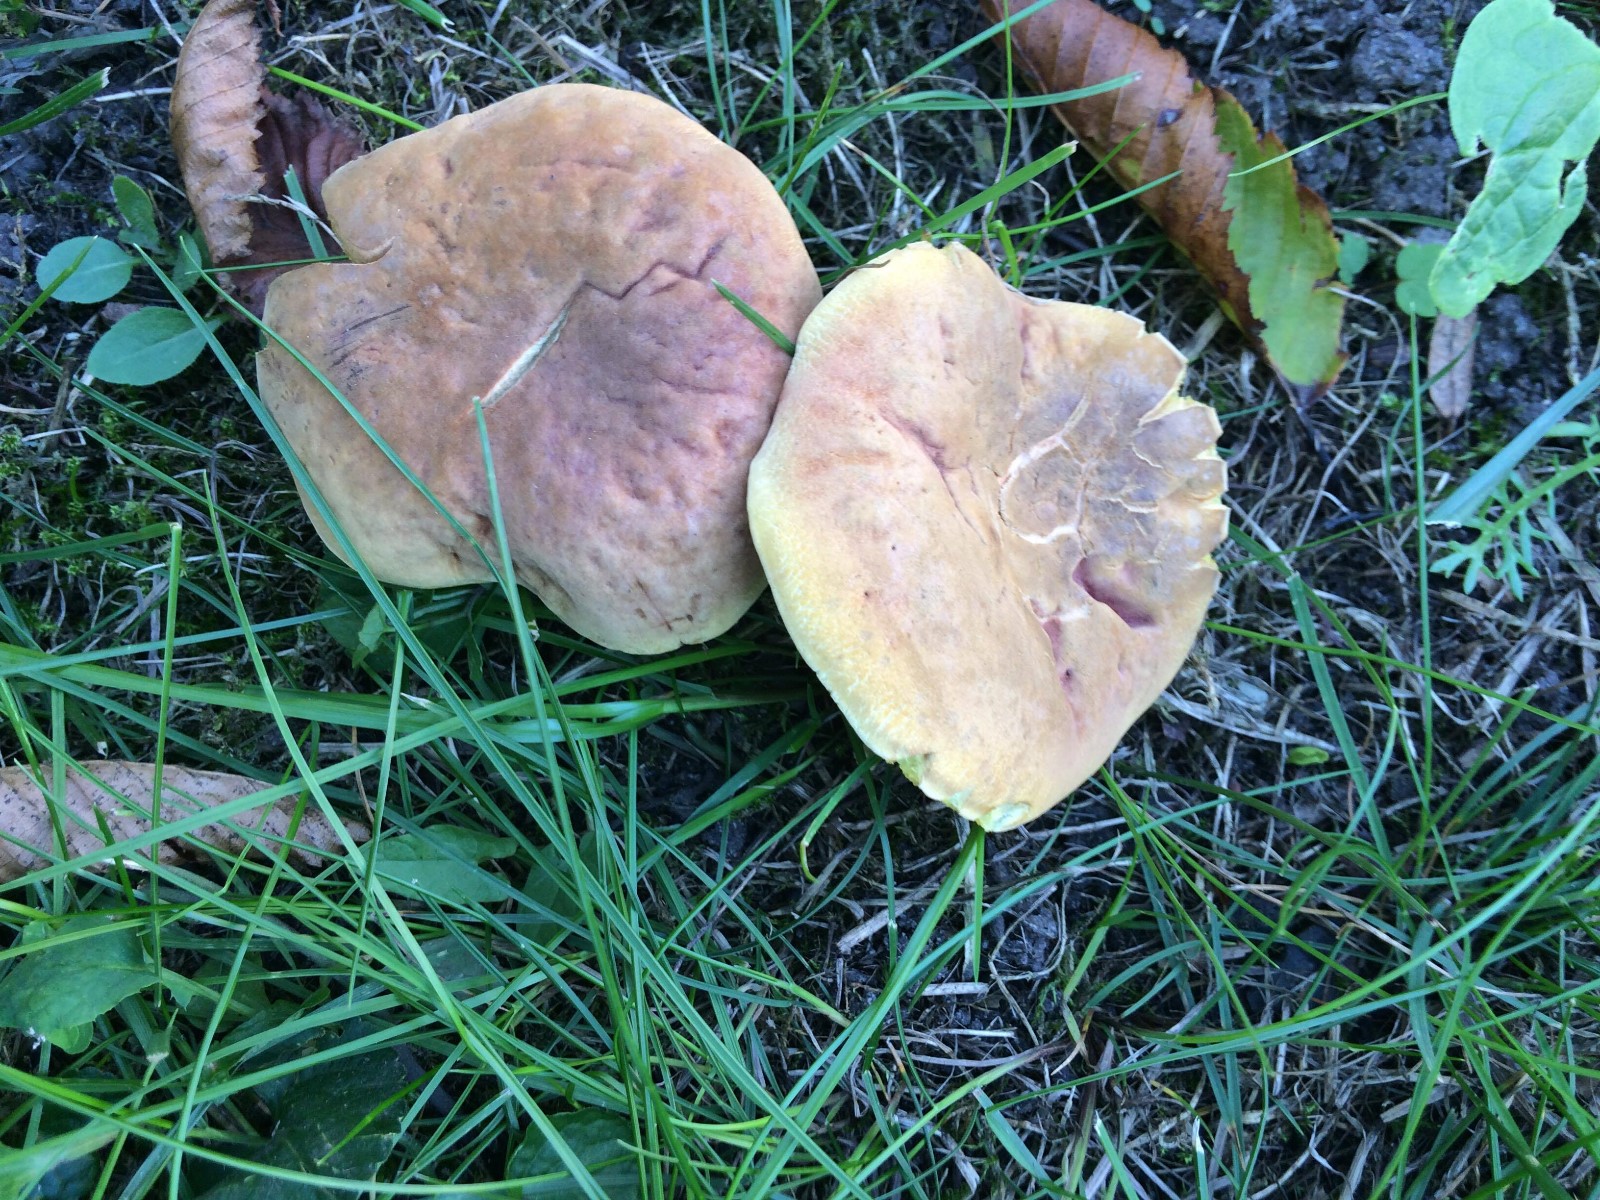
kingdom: Fungi
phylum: Basidiomycota
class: Agaricomycetes
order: Boletales
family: Boletaceae
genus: Hortiboletus
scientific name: Hortiboletus engelii
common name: fersken-rørhat
